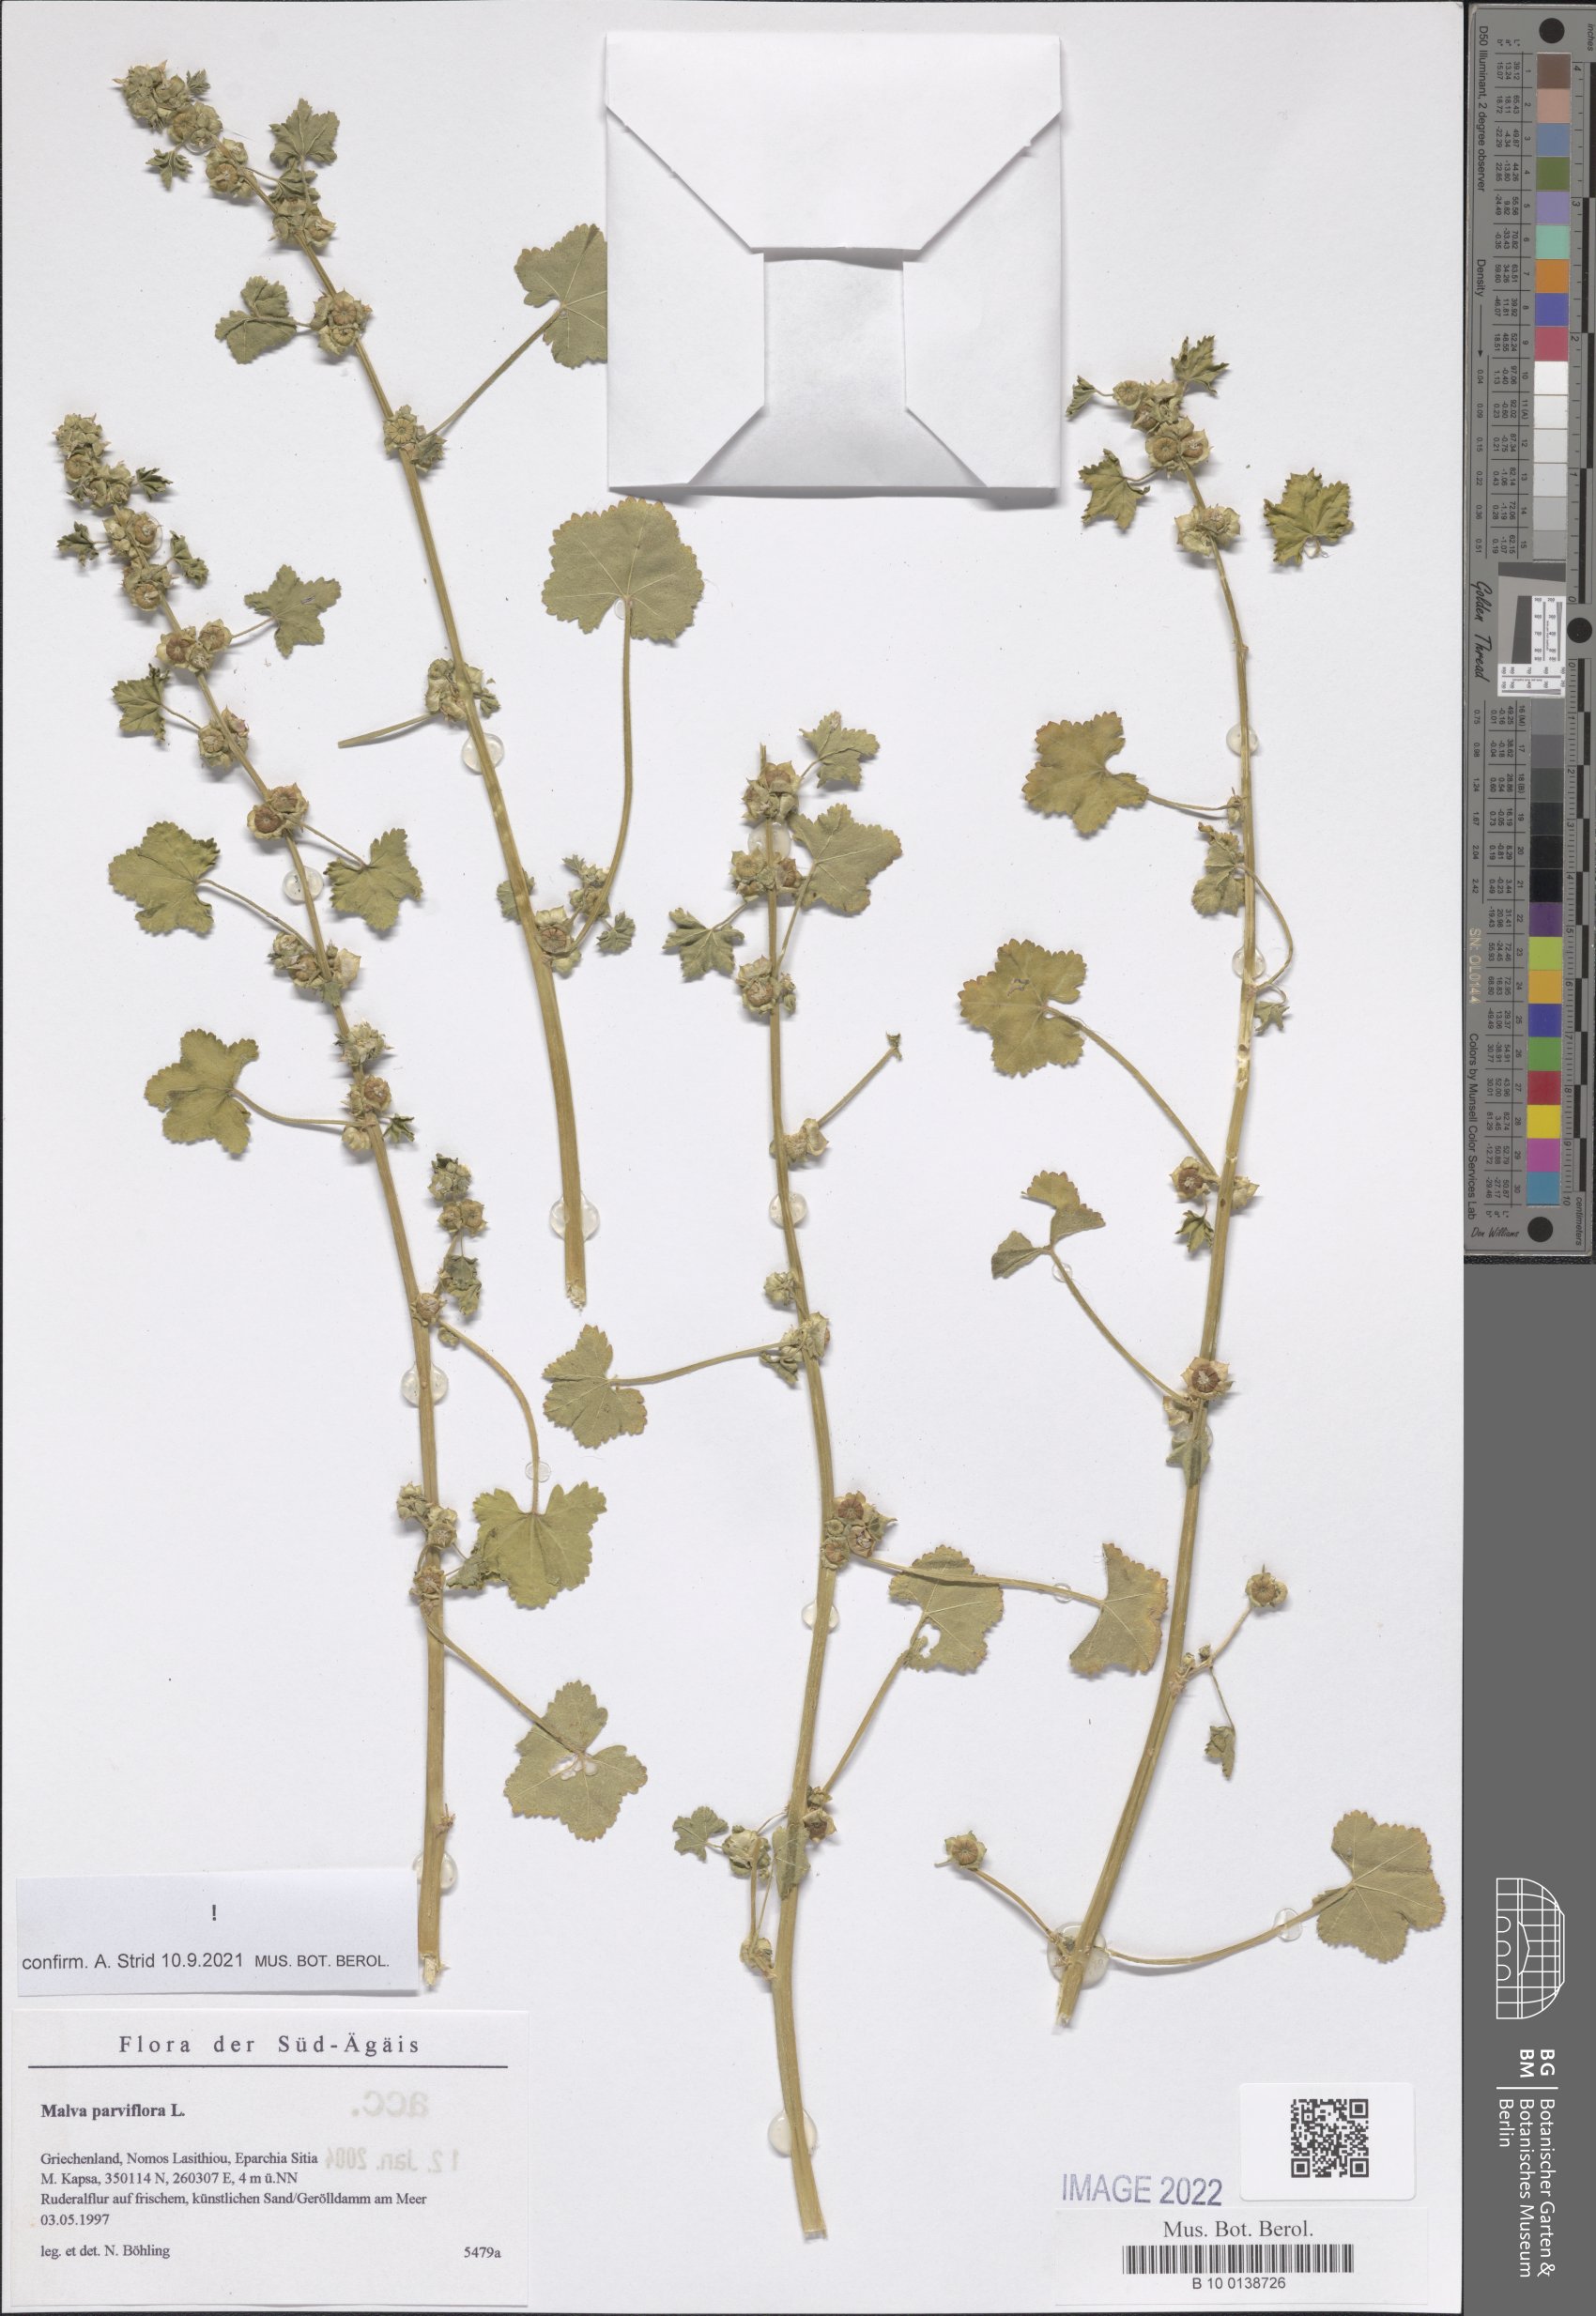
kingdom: Plantae
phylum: Tracheophyta
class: Magnoliopsida
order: Malvales
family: Malvaceae
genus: Malva
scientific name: Malva parviflora
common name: Least mallow
